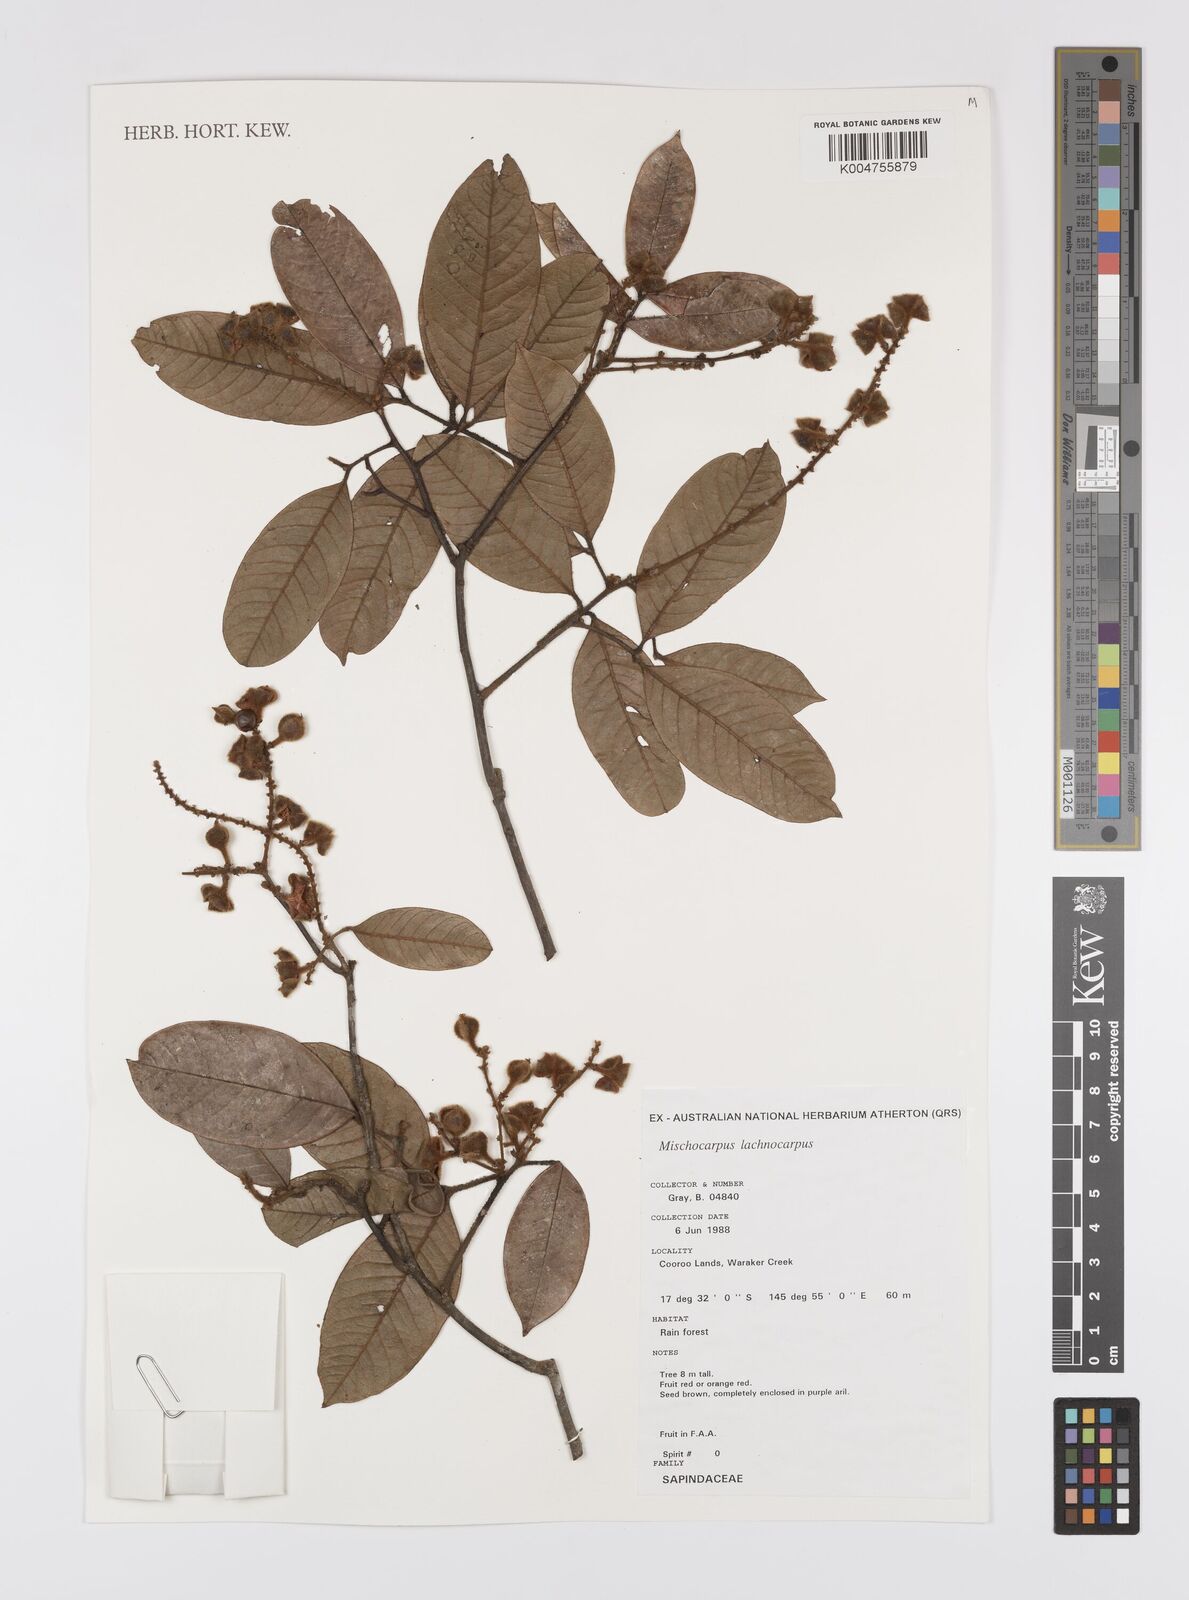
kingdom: Plantae
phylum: Tracheophyta
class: Magnoliopsida
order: Sapindales
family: Sapindaceae
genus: Mischocarpus
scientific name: Mischocarpus lachnocarpus
